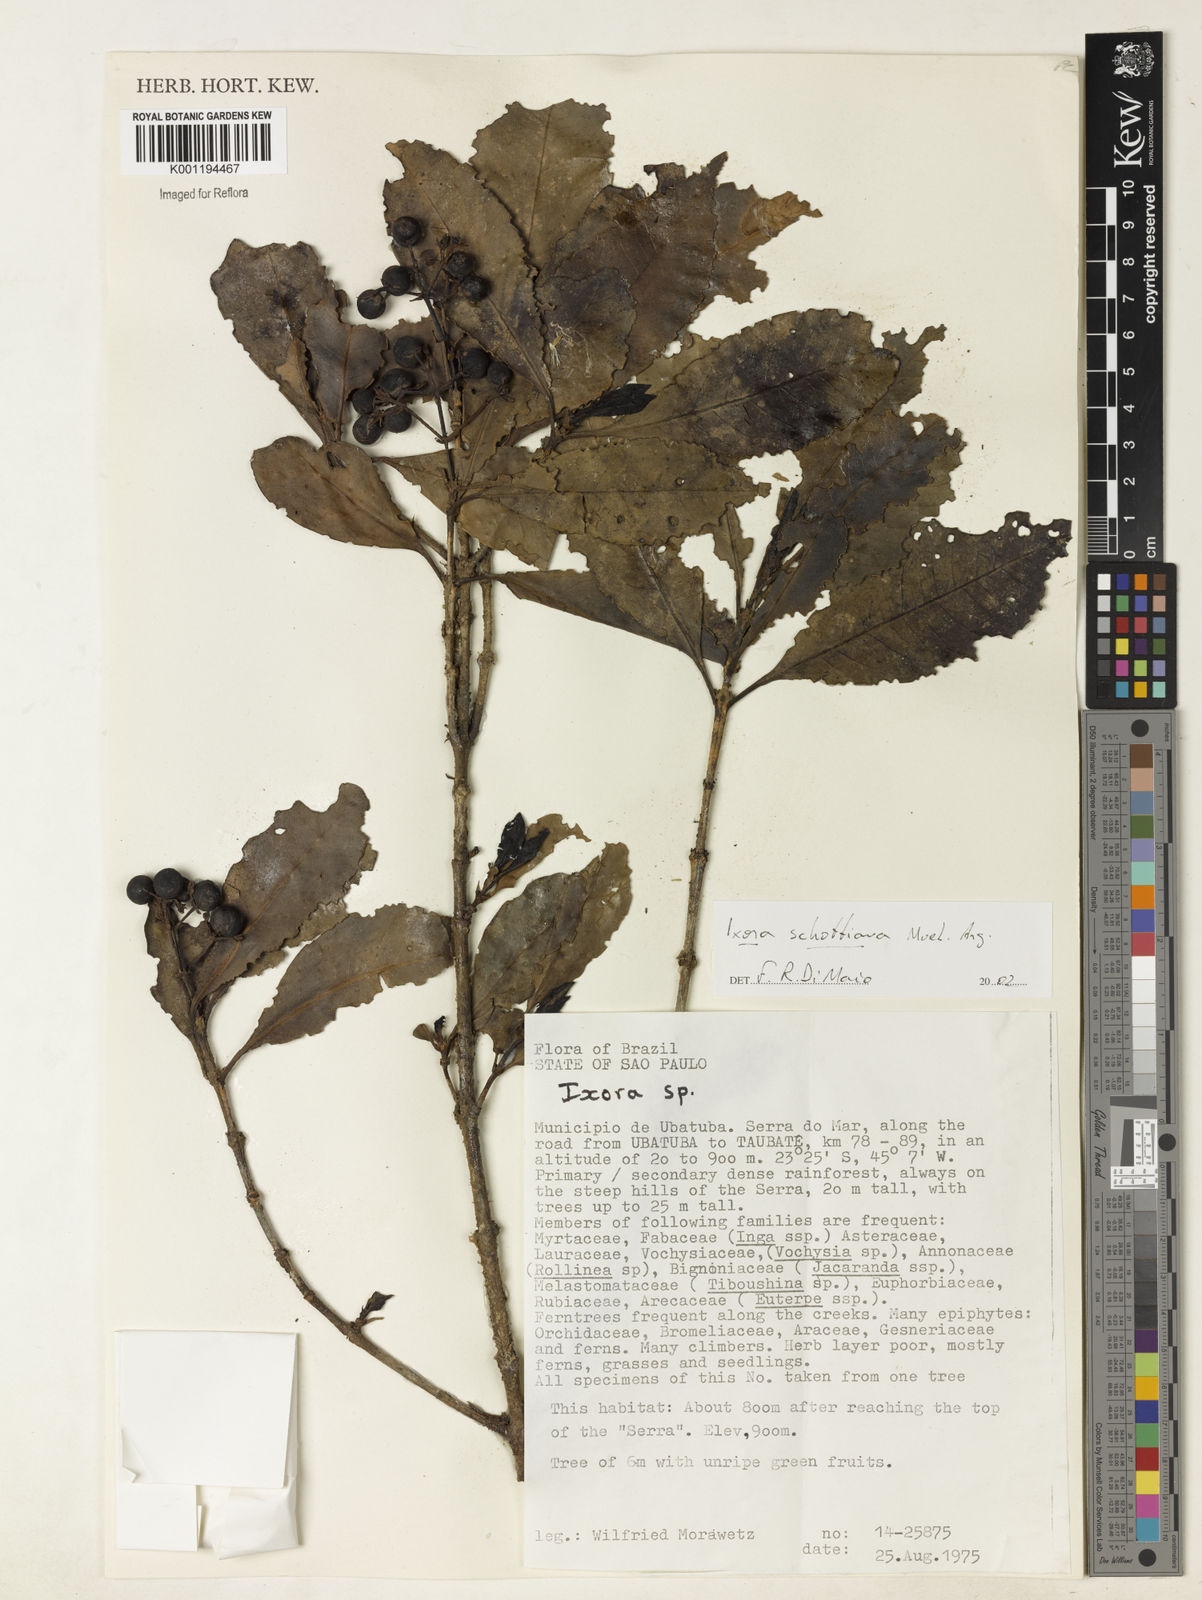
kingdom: Plantae
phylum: Tracheophyta
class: Magnoliopsida
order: Gentianales
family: Rubiaceae
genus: Ixora
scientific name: Ixora
